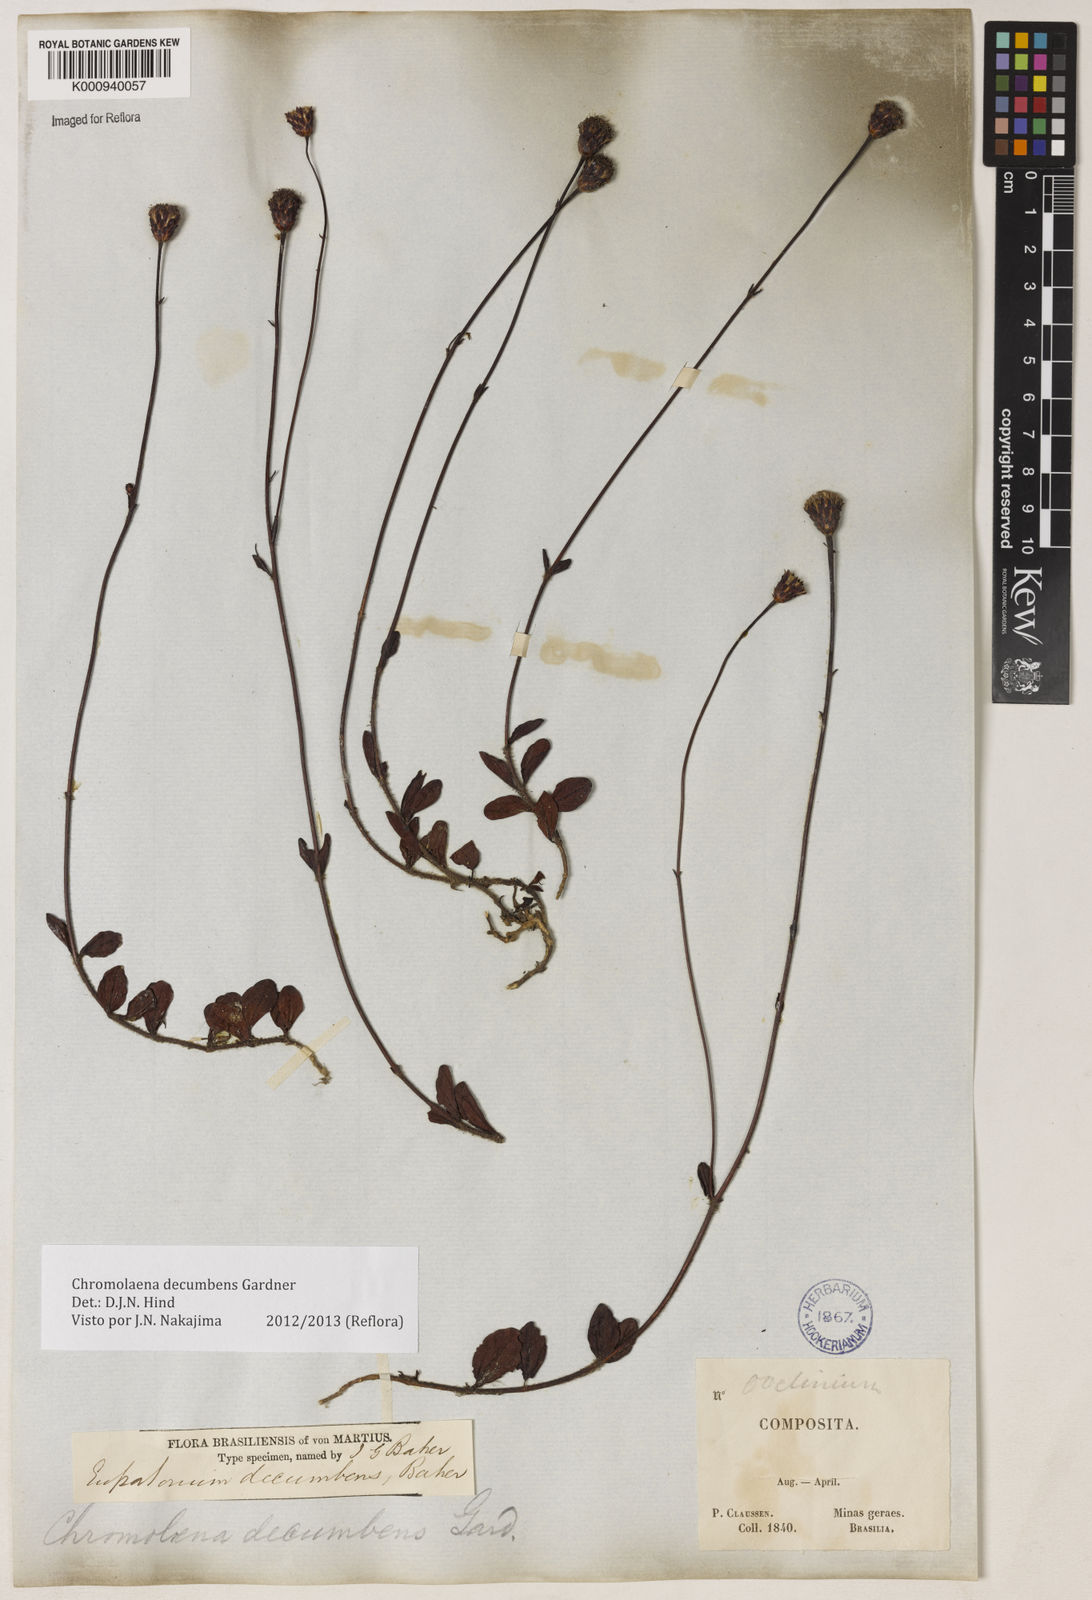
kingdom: Plantae
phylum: Tracheophyta
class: Magnoliopsida
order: Asterales
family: Asteraceae
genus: Praxelis
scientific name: Praxelis decumbens
